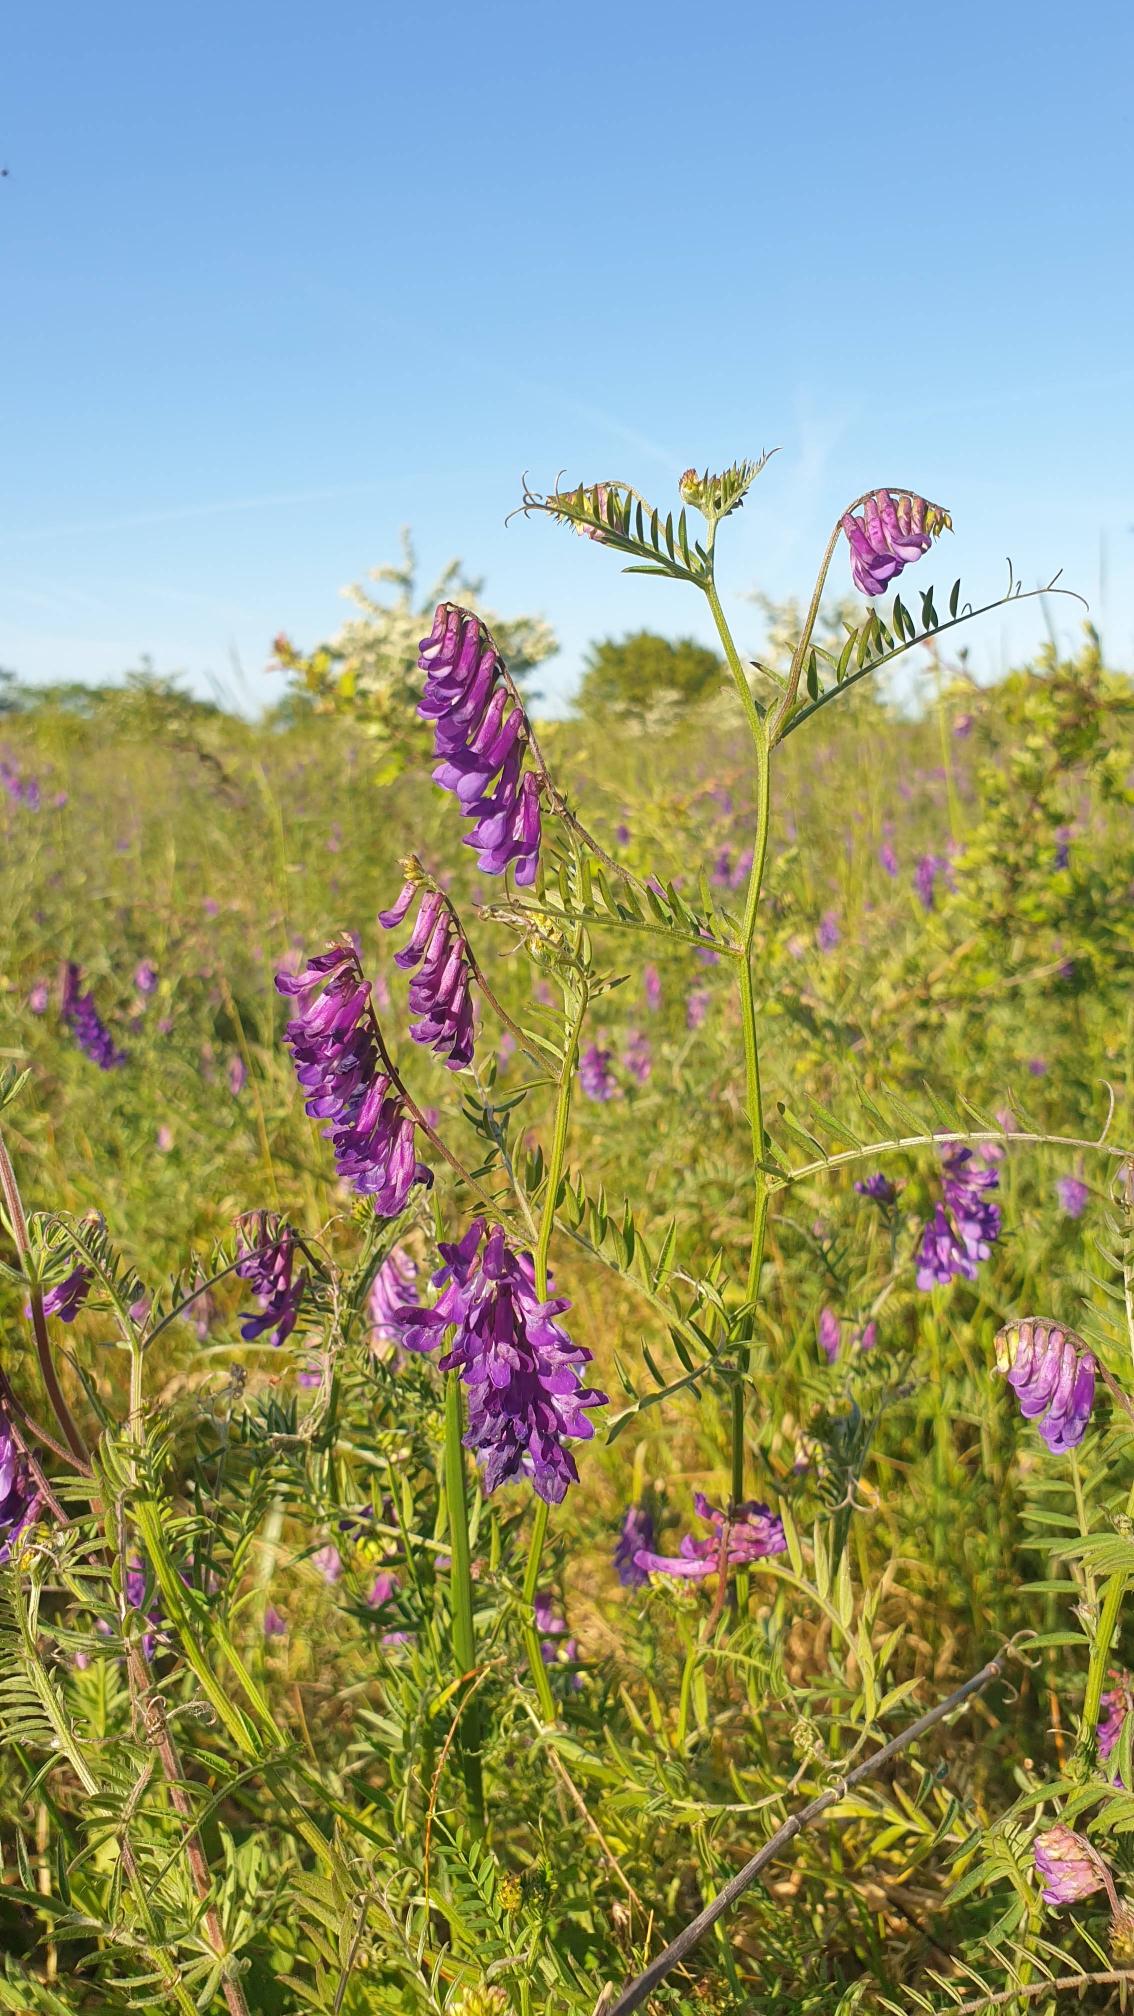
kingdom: Plantae
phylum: Tracheophyta
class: Magnoliopsida
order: Fabales
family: Fabaceae
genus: Vicia
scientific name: Vicia cracca
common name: Muse-vikke
